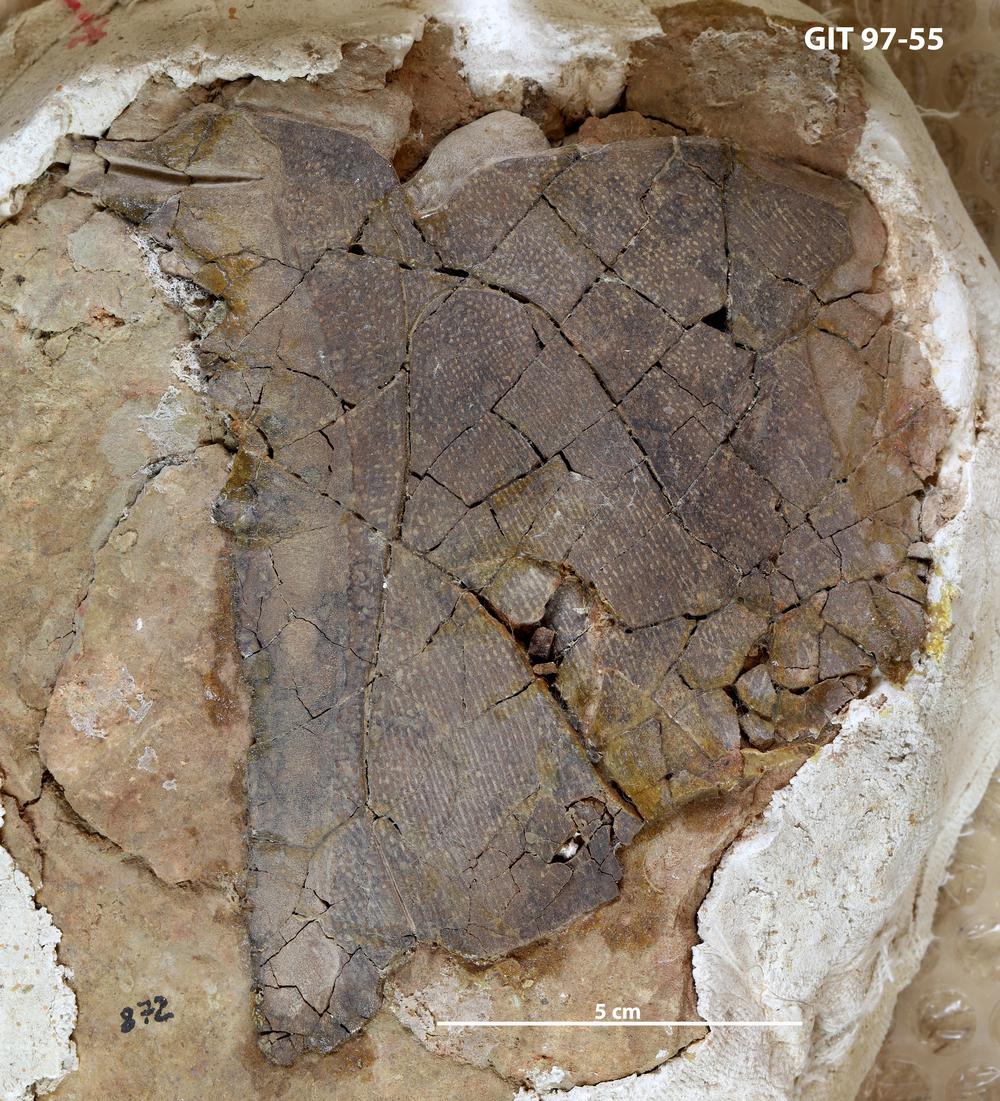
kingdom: Animalia
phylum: Chordata
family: Holonematidae
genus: Holonema
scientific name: Holonema
